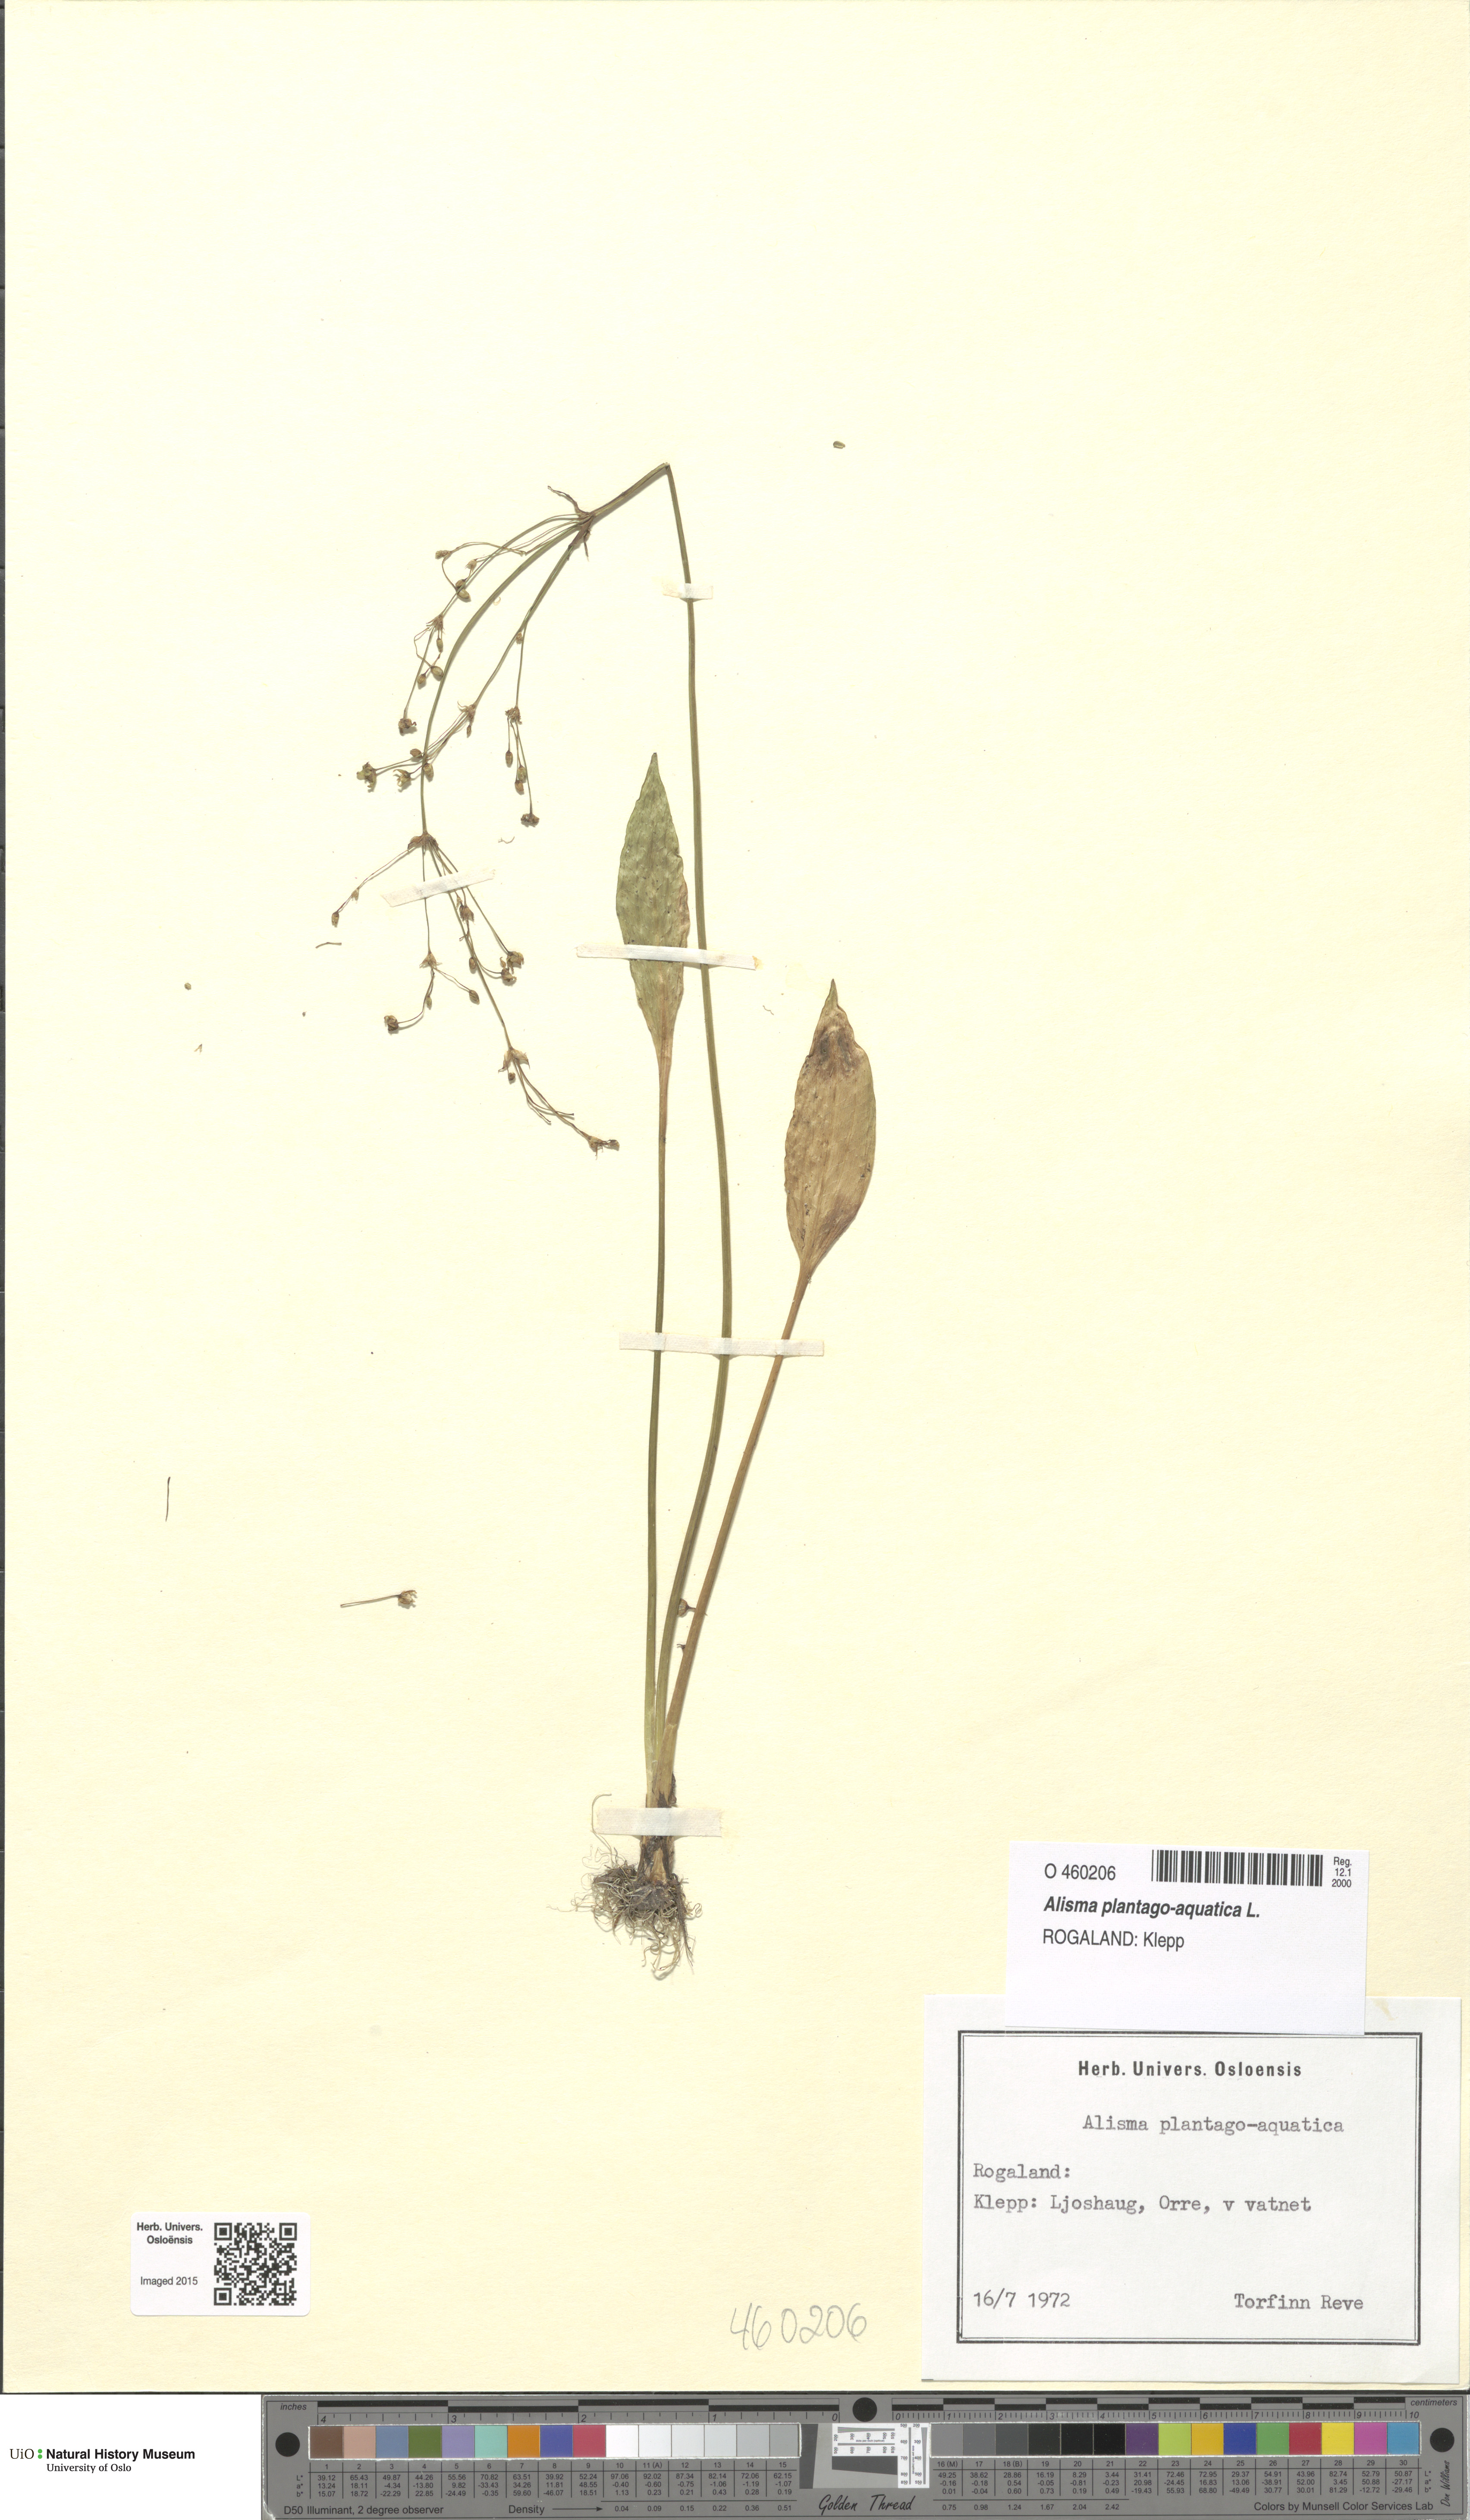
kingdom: Plantae
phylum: Tracheophyta
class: Liliopsida
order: Alismatales
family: Alismataceae
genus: Alisma
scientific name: Alisma plantago-aquatica
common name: Water-plantain
